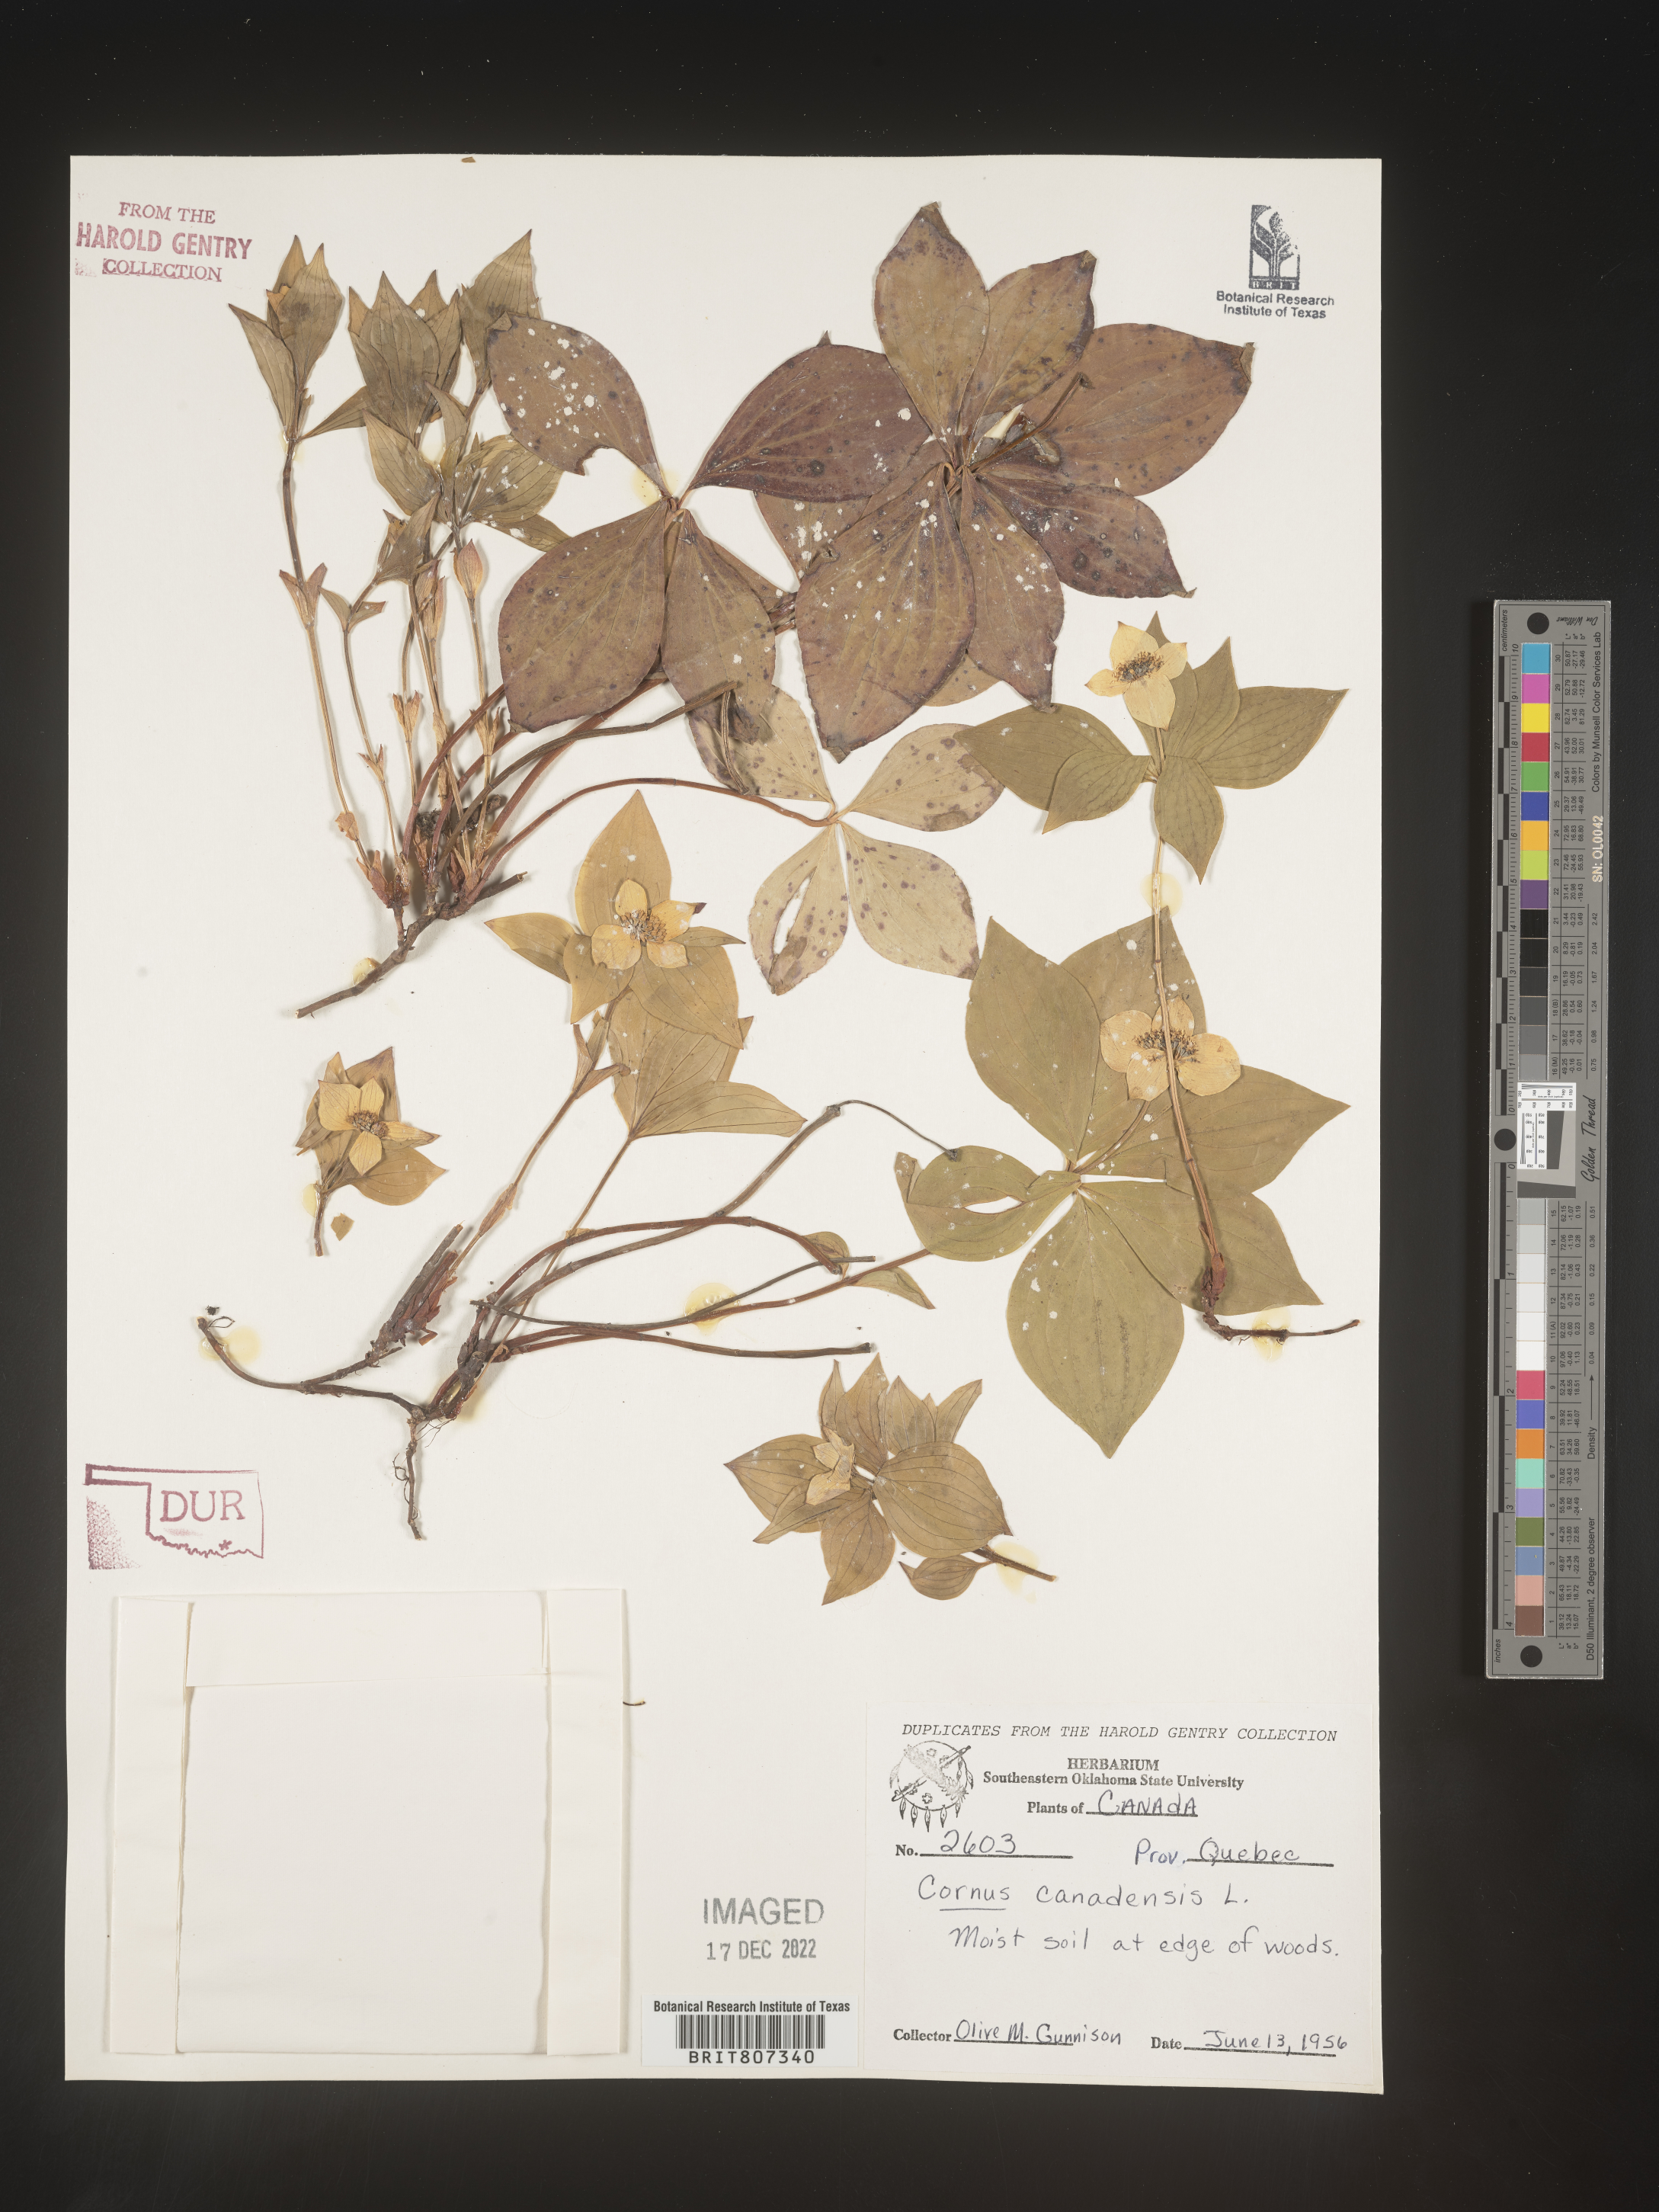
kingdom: Plantae
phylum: Tracheophyta
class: Magnoliopsida
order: Cornales
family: Cornaceae
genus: Cornus
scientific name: Cornus canadensis
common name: Creeping dogwood
